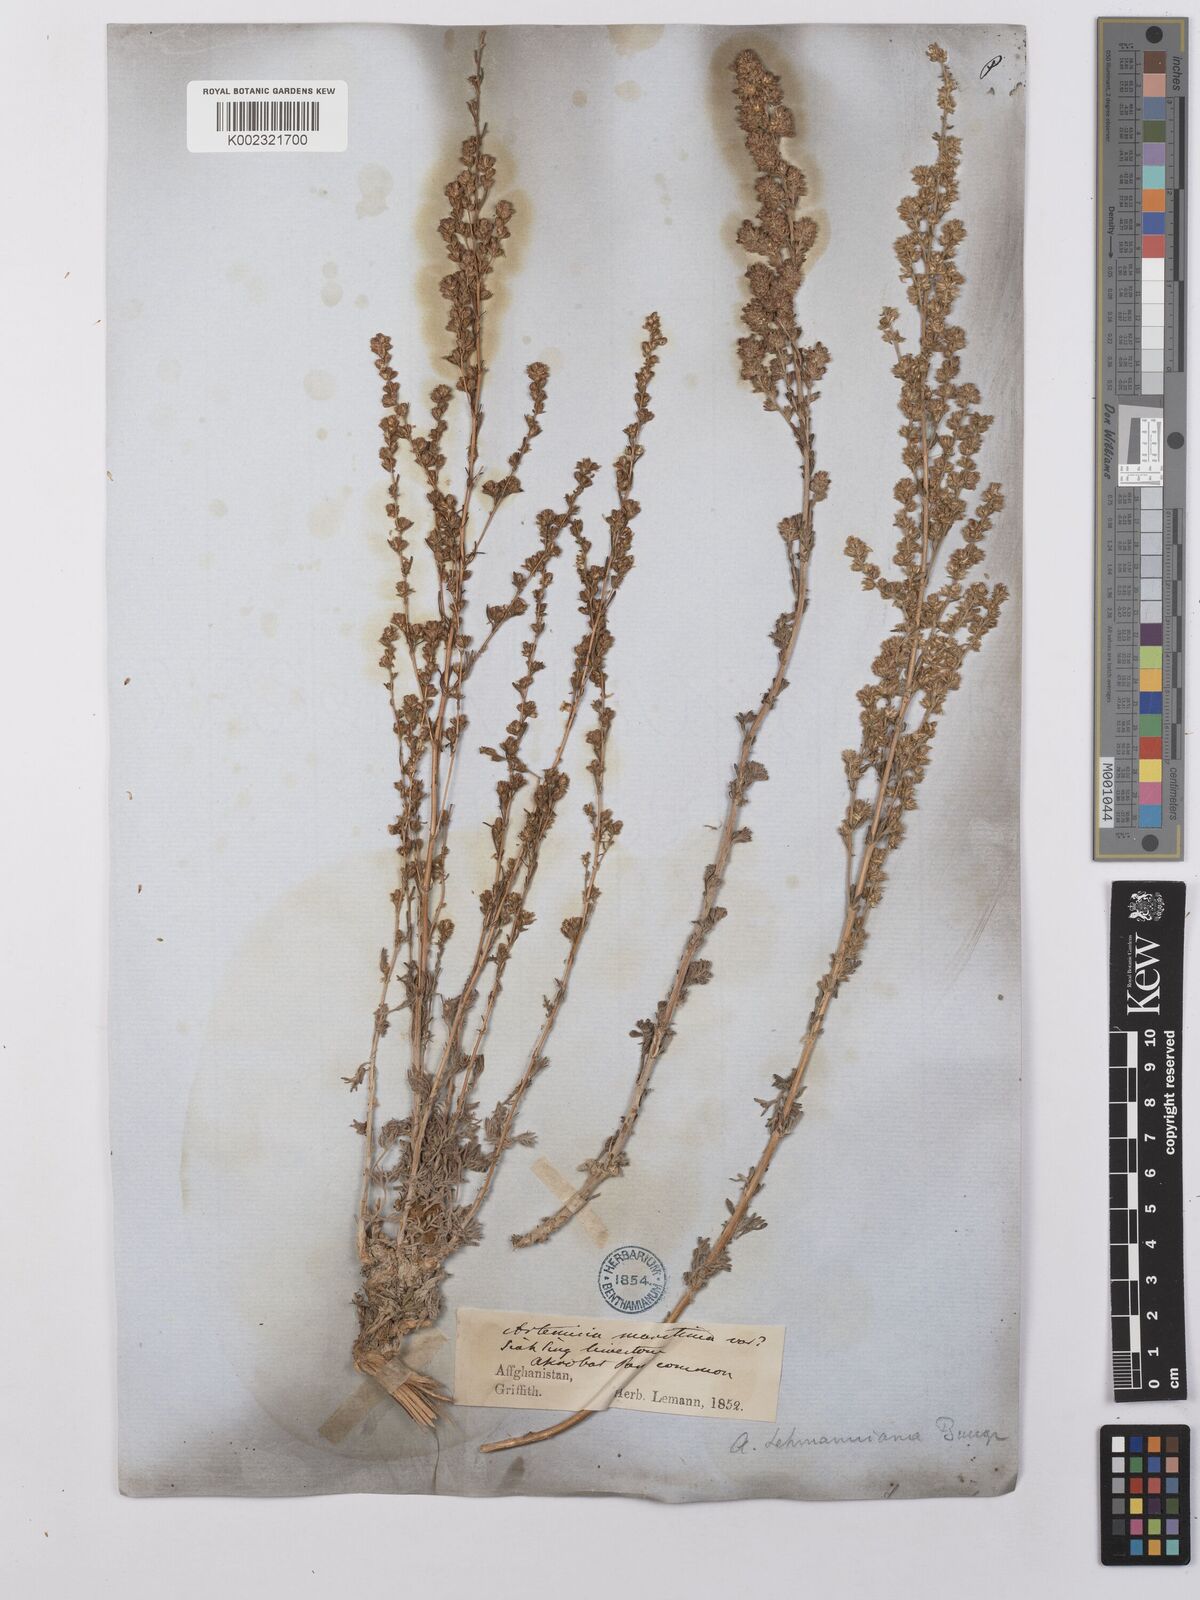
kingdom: Plantae
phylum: Tracheophyta
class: Magnoliopsida
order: Asterales
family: Asteraceae
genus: Artemisia
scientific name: Artemisia lehmanniana
